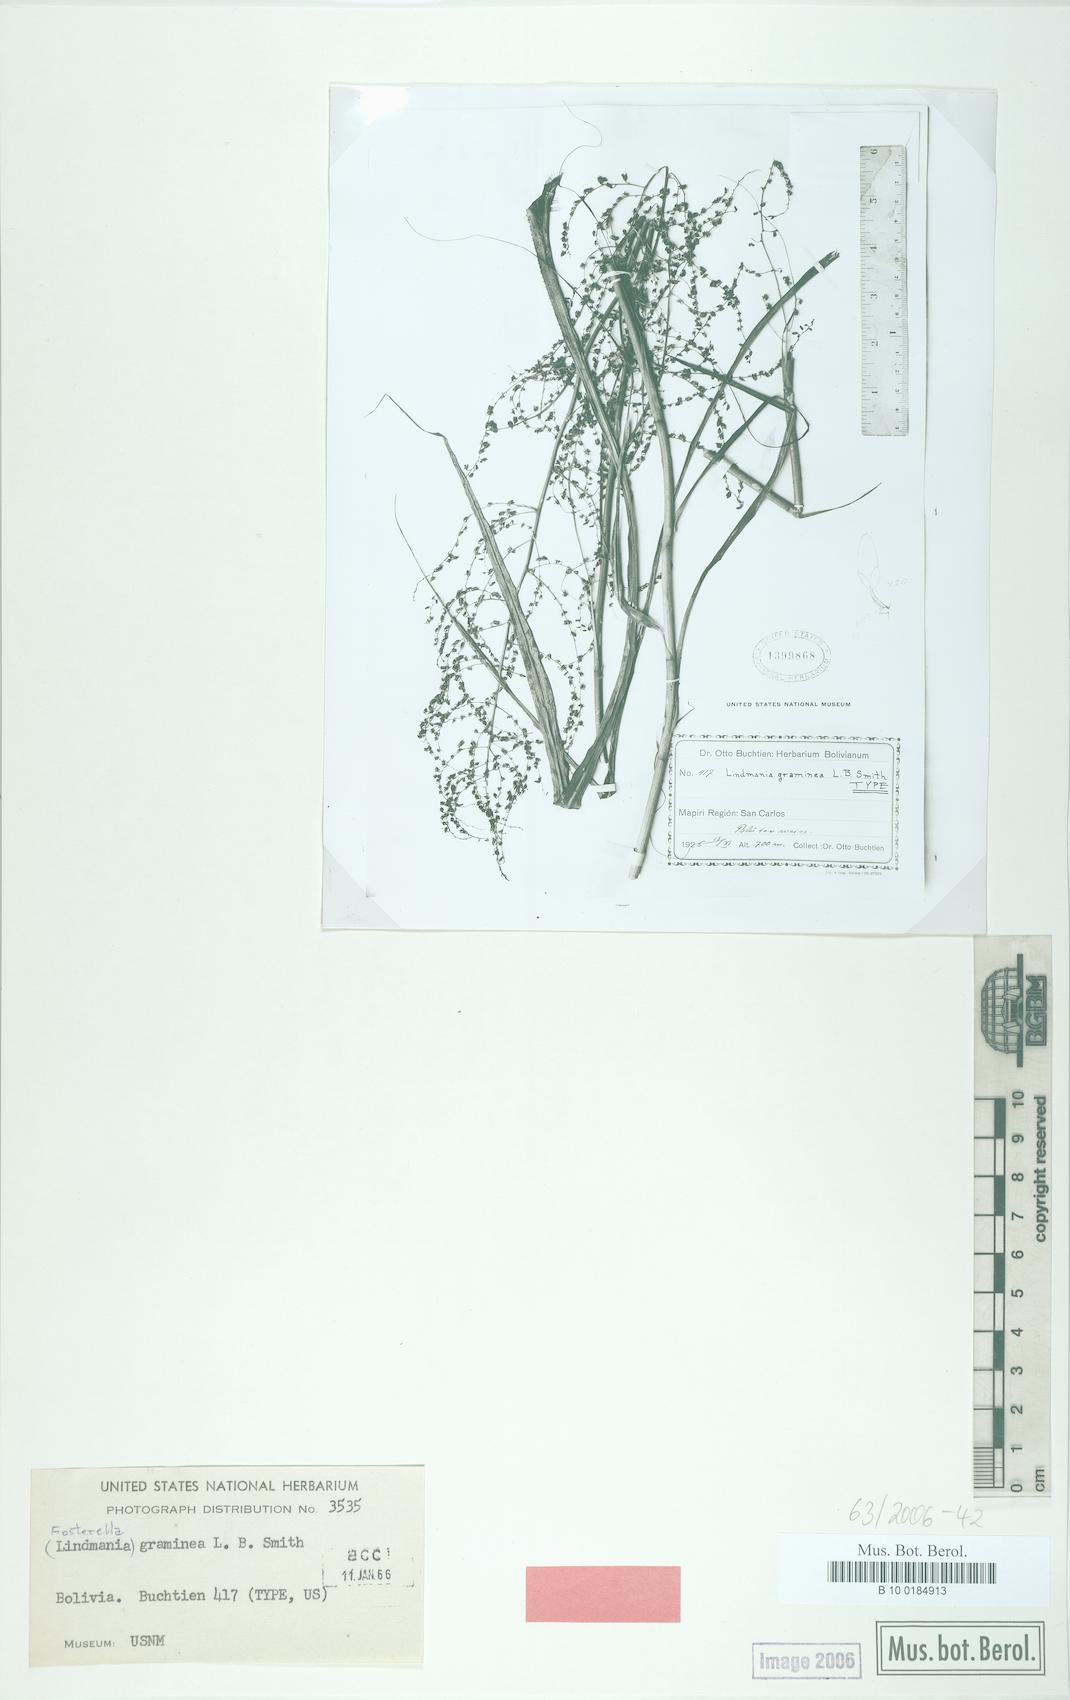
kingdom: Plantae
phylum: Tracheophyta
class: Liliopsida
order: Poales
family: Bromeliaceae
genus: Fosterella
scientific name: Fosterella graminea
